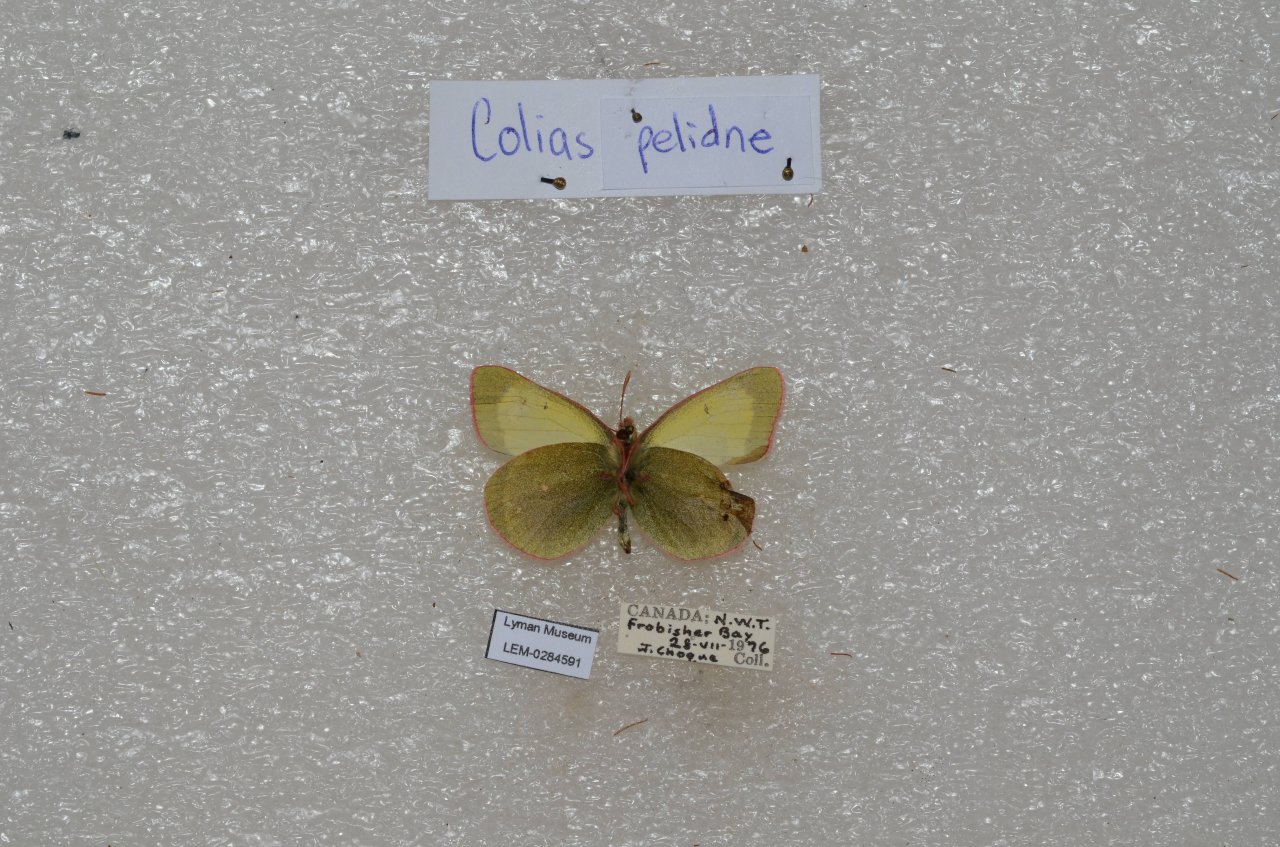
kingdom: Animalia
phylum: Arthropoda
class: Insecta
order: Lepidoptera
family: Pieridae
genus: Colias
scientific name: Colias palaeno
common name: Chippewa Sulphur
